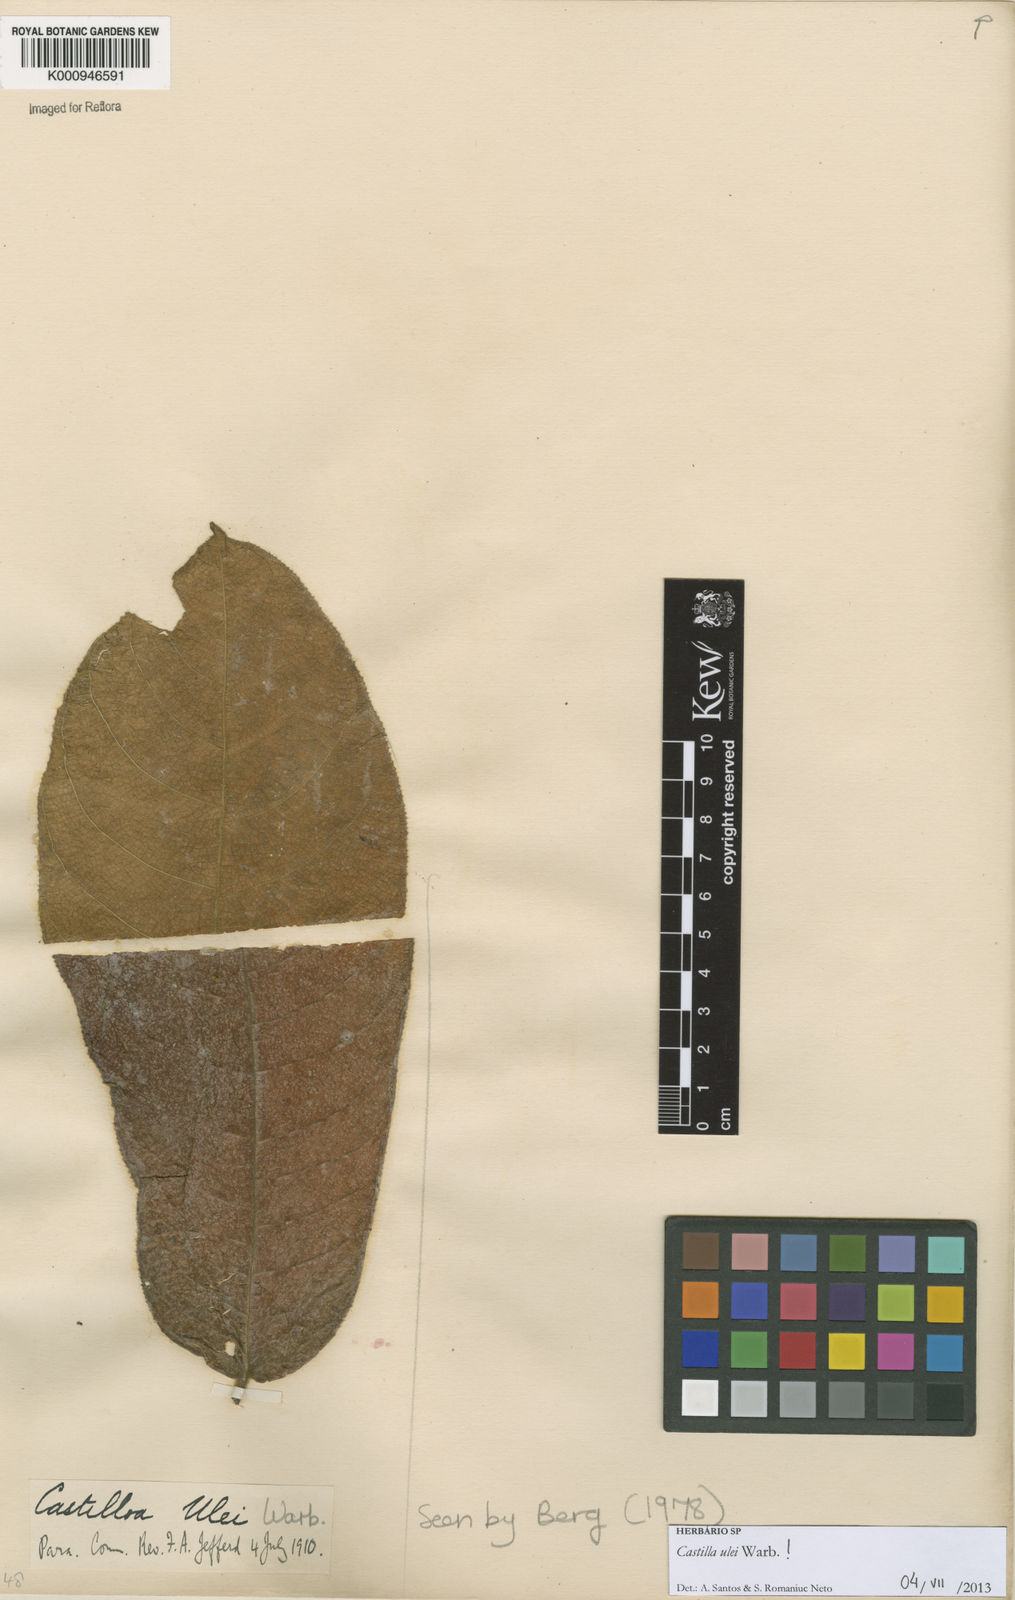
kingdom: Plantae
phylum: Tracheophyta
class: Magnoliopsida
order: Rosales
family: Moraceae
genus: Castilla
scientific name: Castilla ulei
